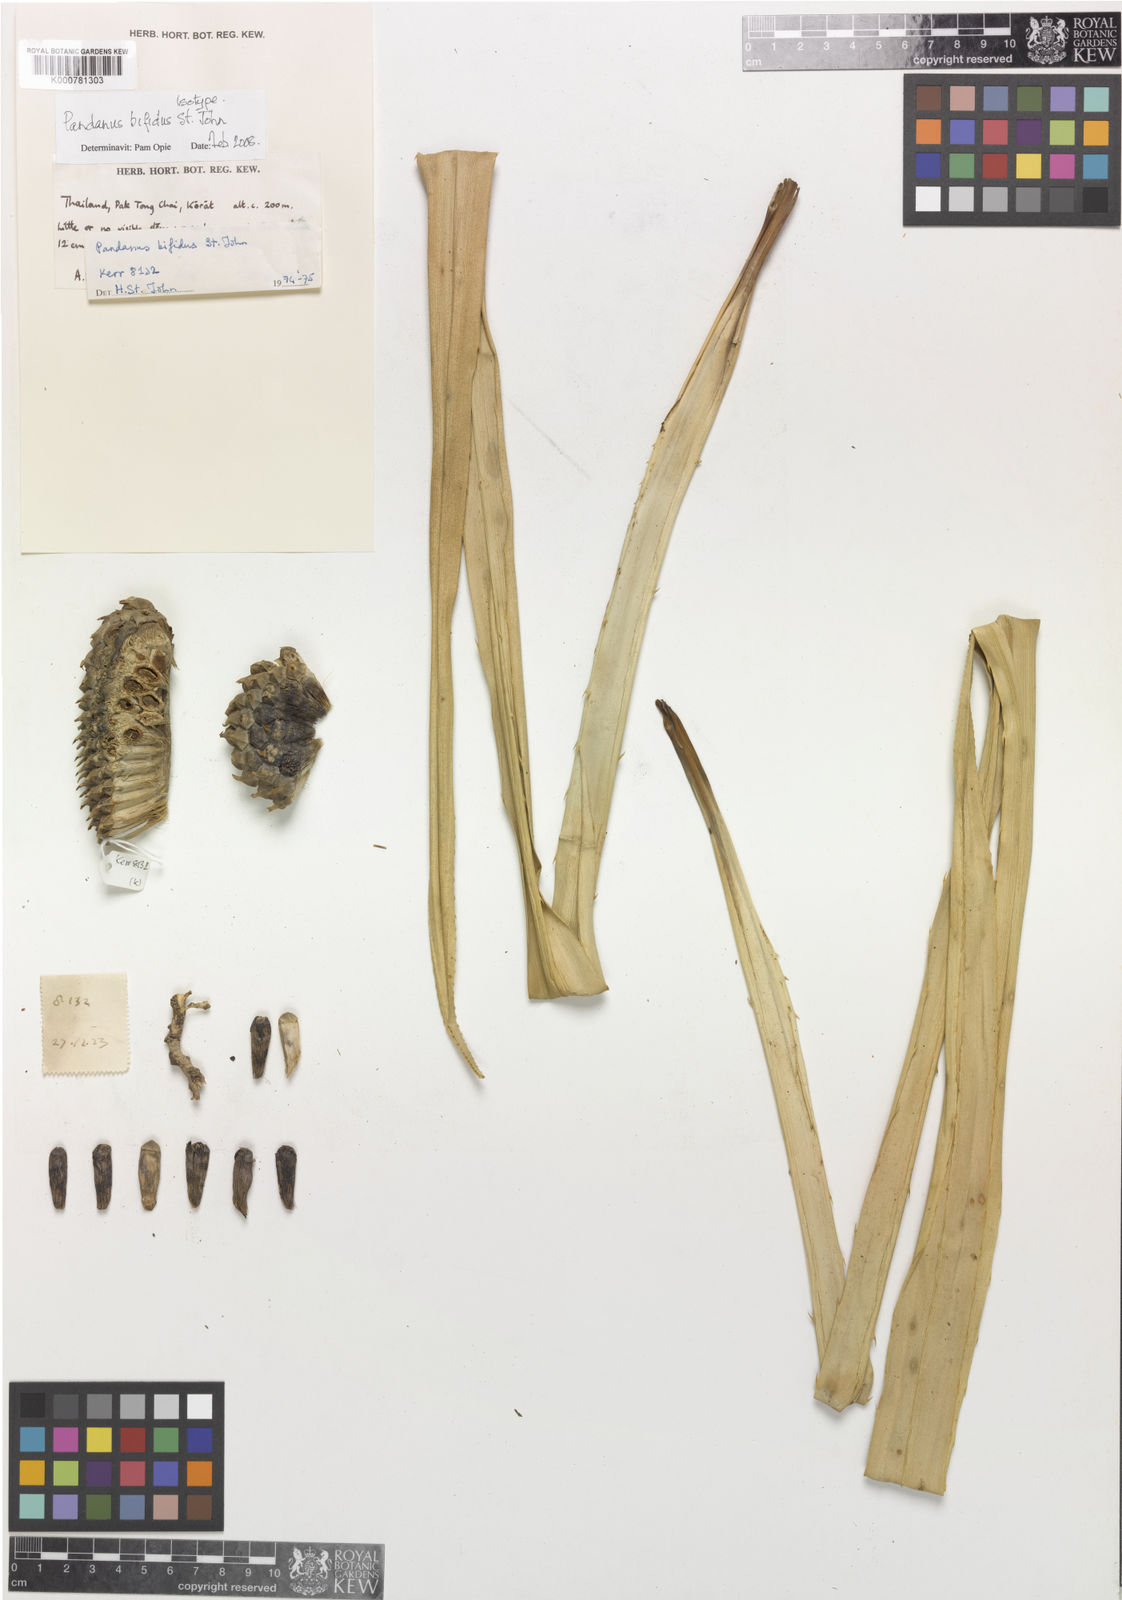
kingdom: Plantae
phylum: Tracheophyta
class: Liliopsida
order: Pandanales
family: Pandanaceae
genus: Pandanus
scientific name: Pandanus obconicus
